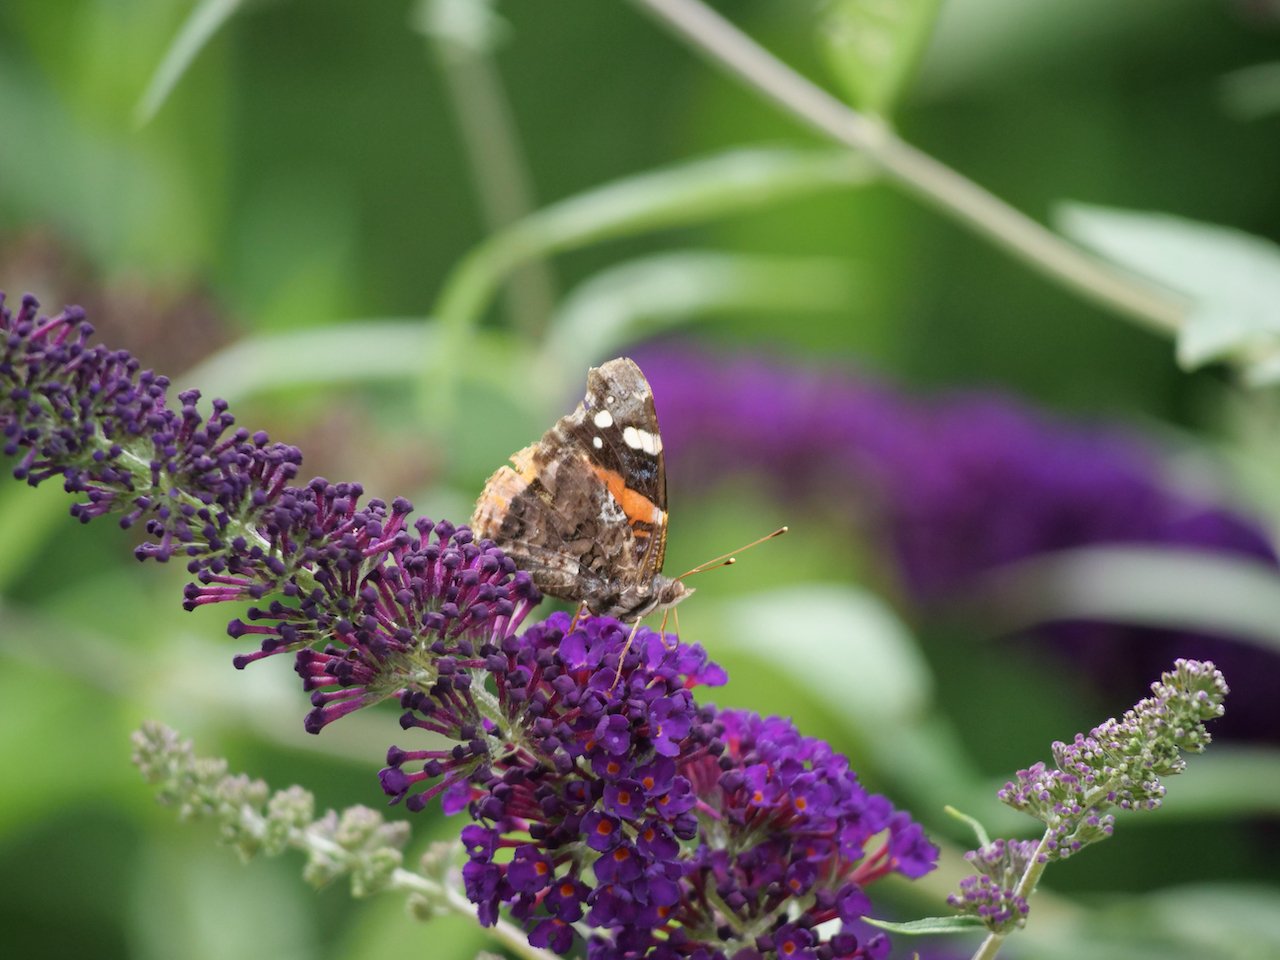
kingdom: Animalia
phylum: Arthropoda
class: Insecta
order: Lepidoptera
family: Nymphalidae
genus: Vanessa
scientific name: Vanessa atalanta
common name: Red Admiral
